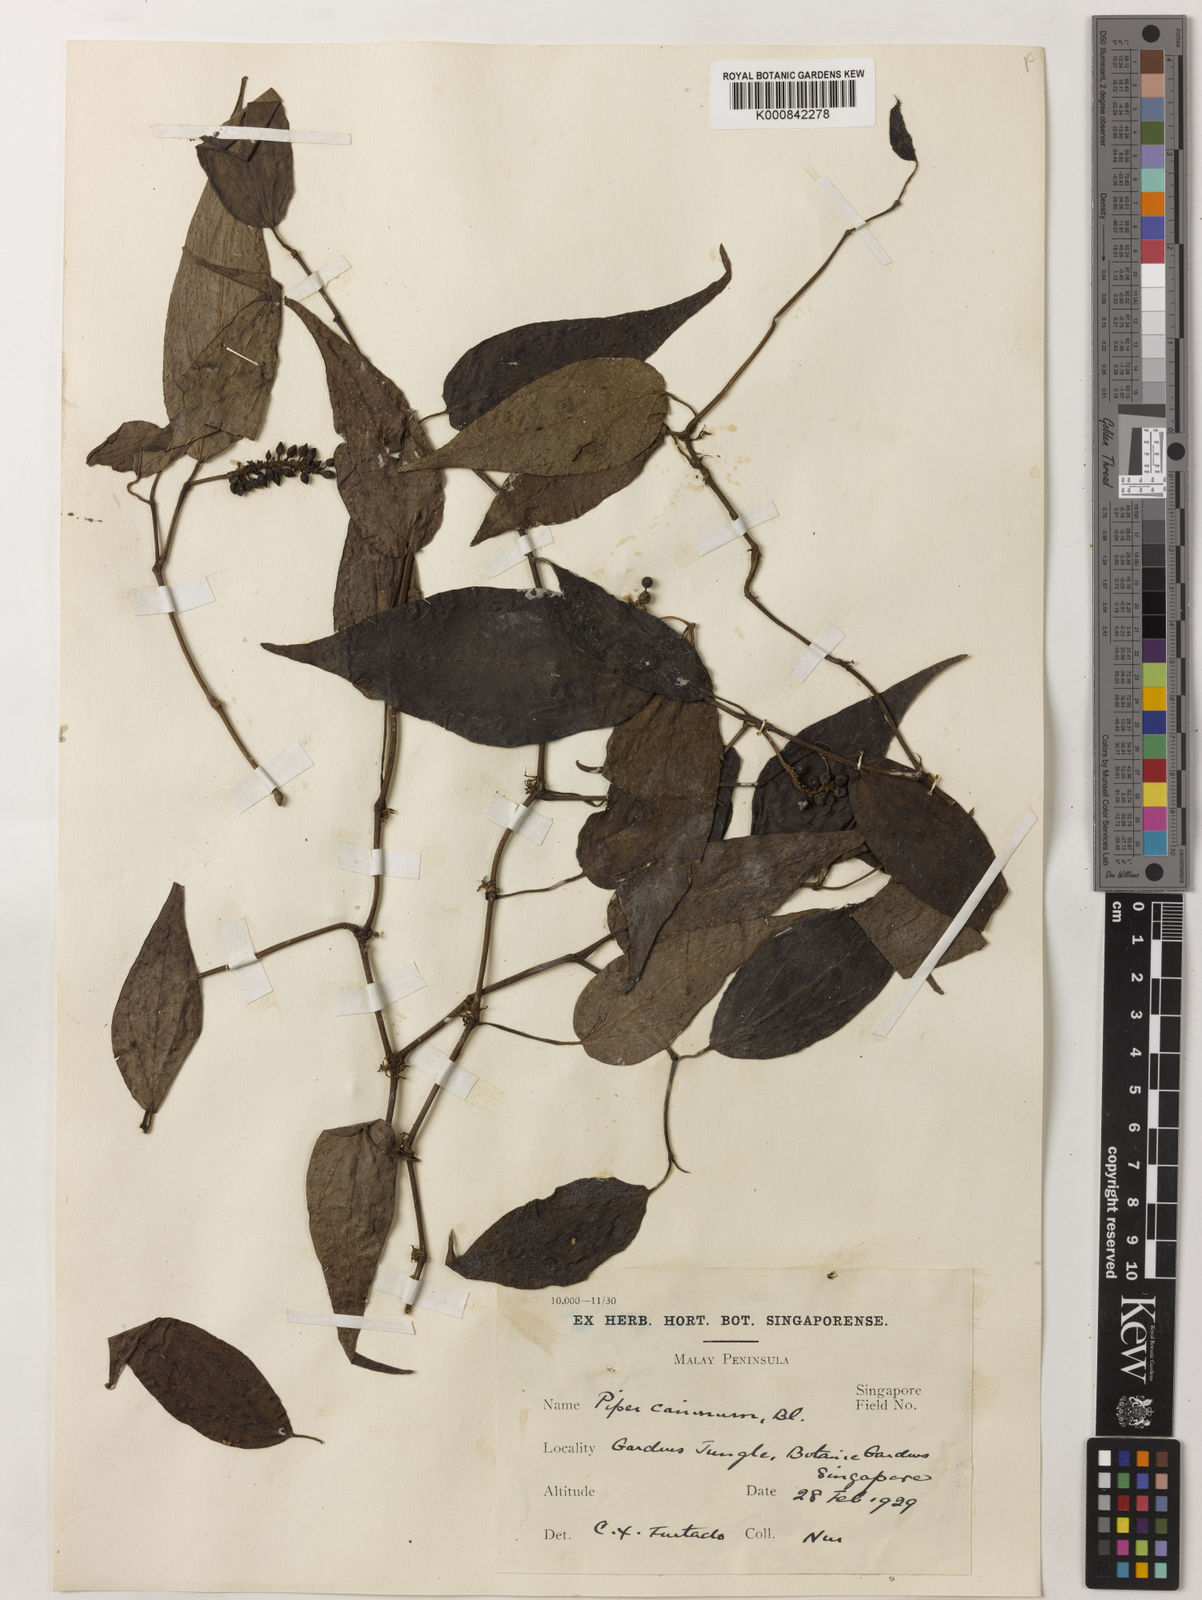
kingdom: Plantae
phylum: Tracheophyta
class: Magnoliopsida
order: Piperales
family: Piperaceae
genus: Piper
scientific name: Piper lanatum
